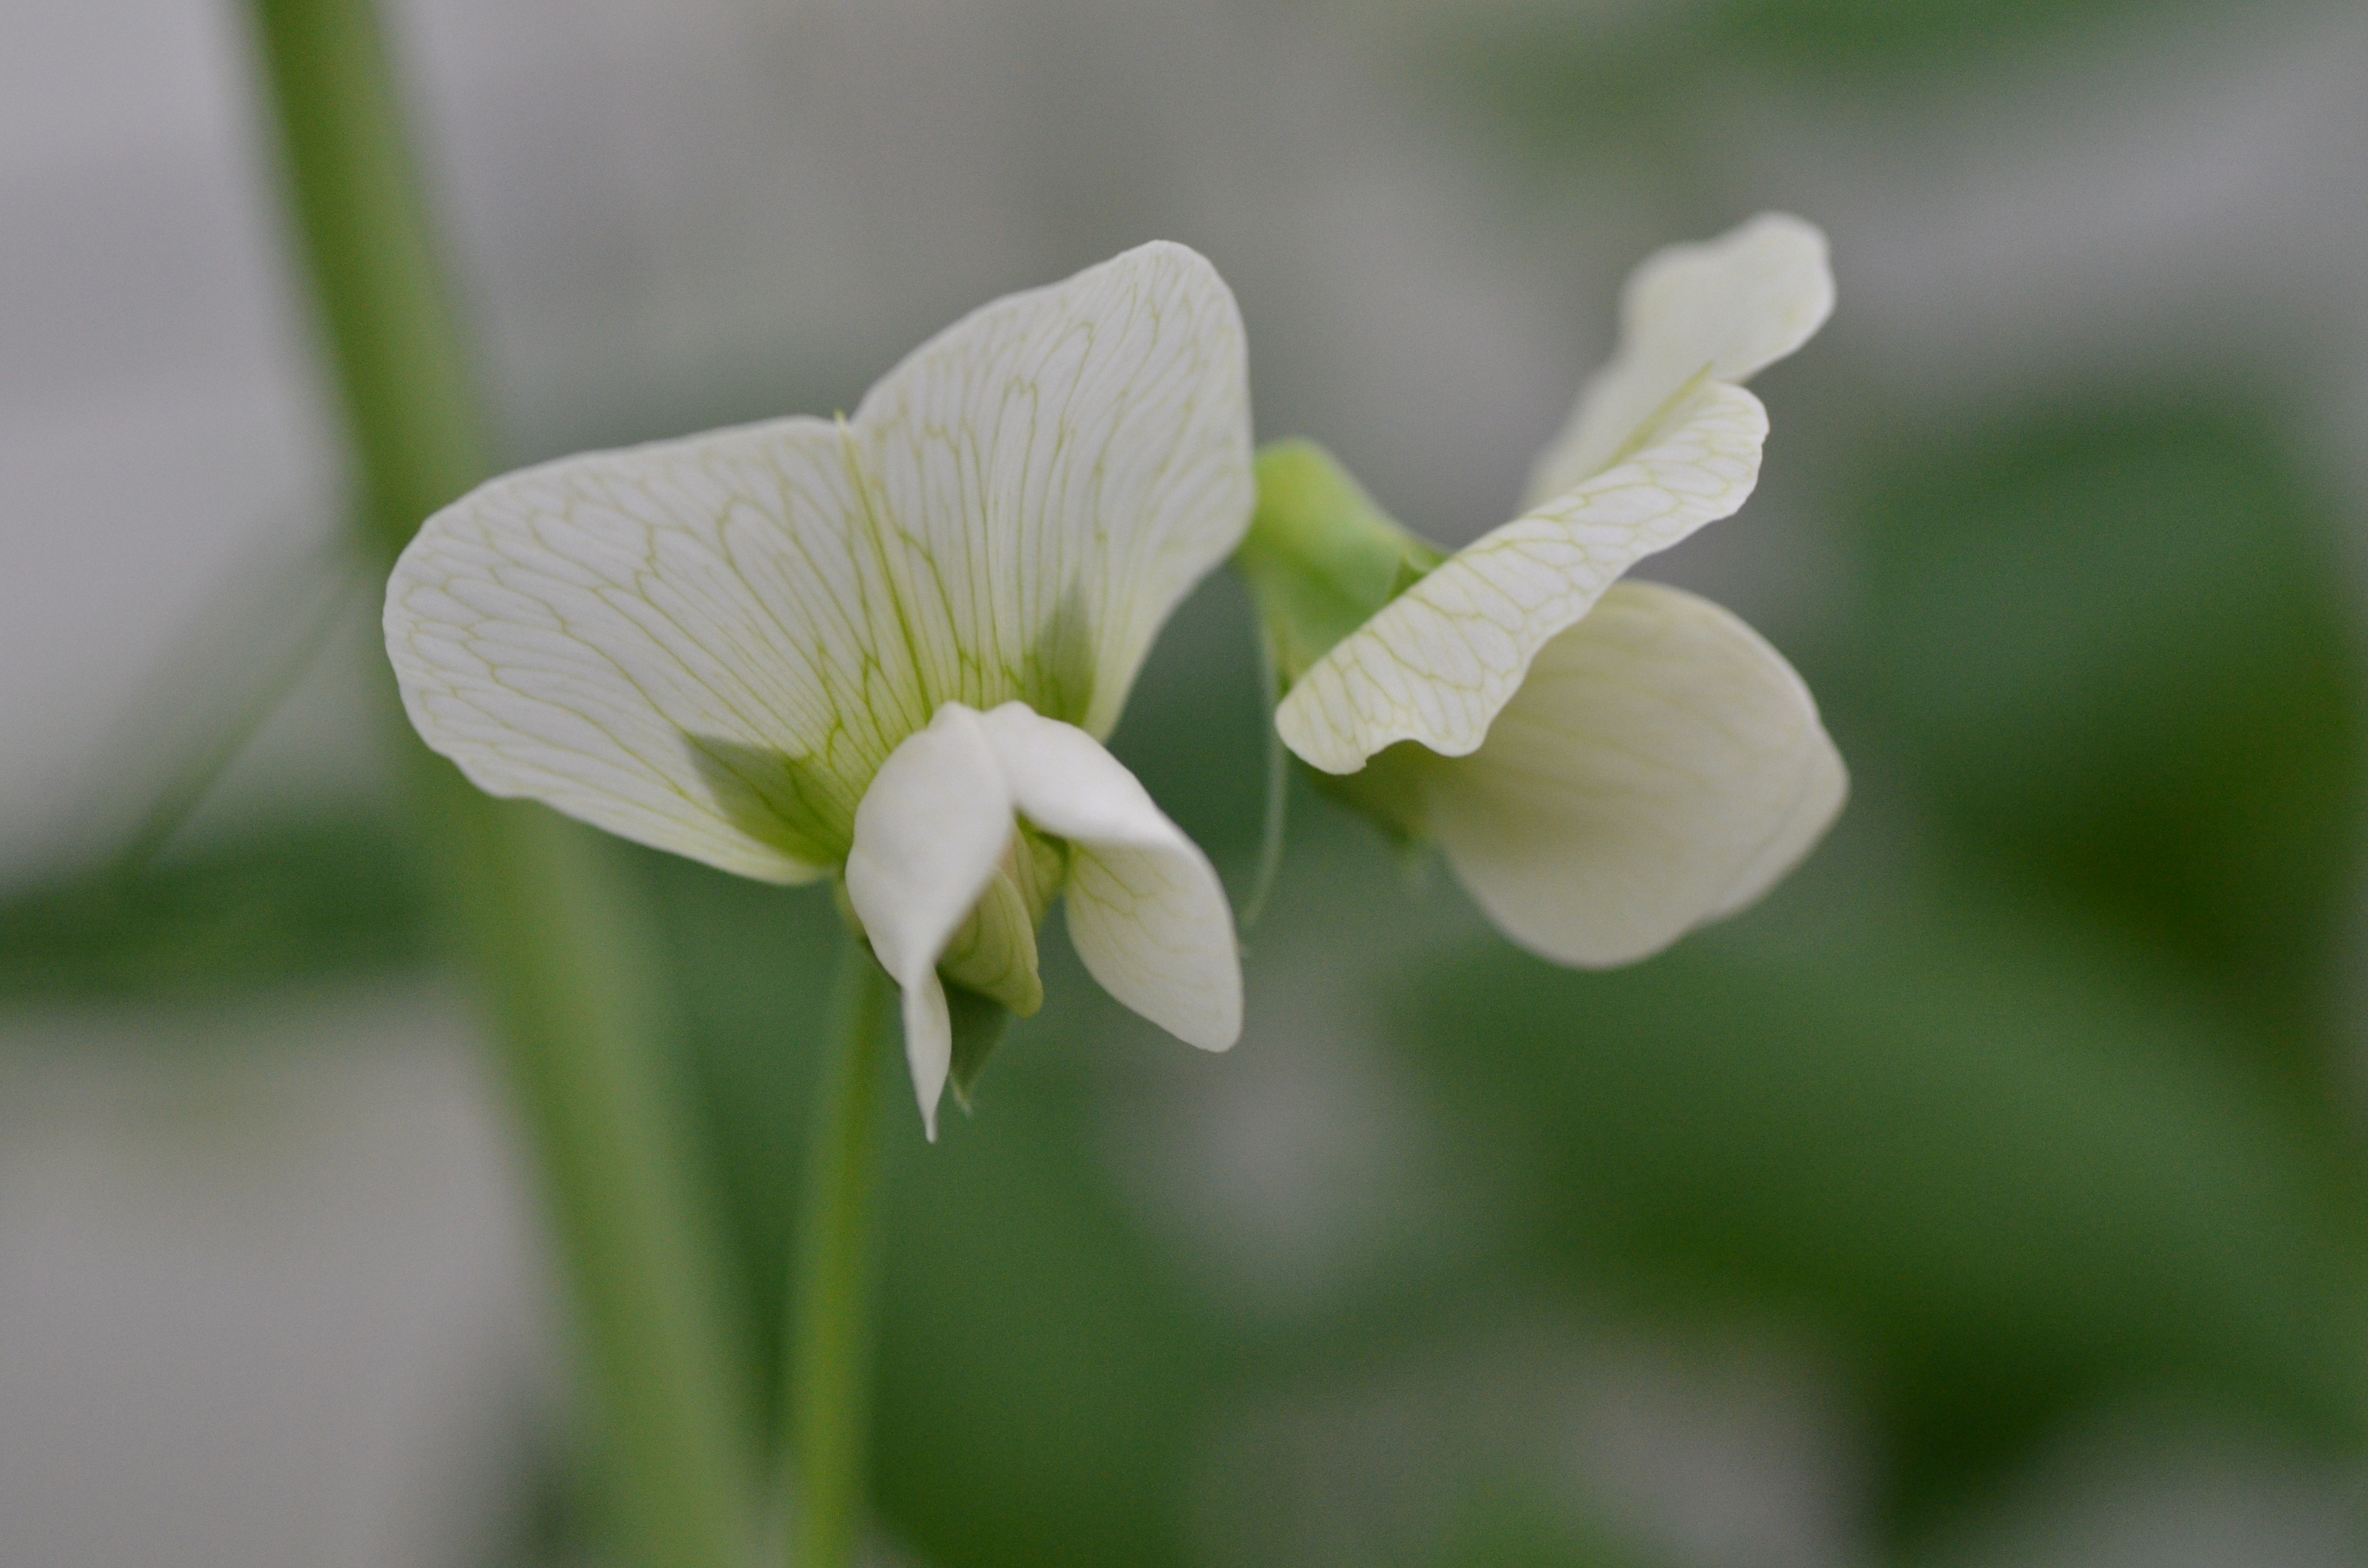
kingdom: Plantae
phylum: Tracheophyta
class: Magnoliopsida
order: Fabales
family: Fabaceae
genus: Lathyrus
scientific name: Lathyrus oleraceus
